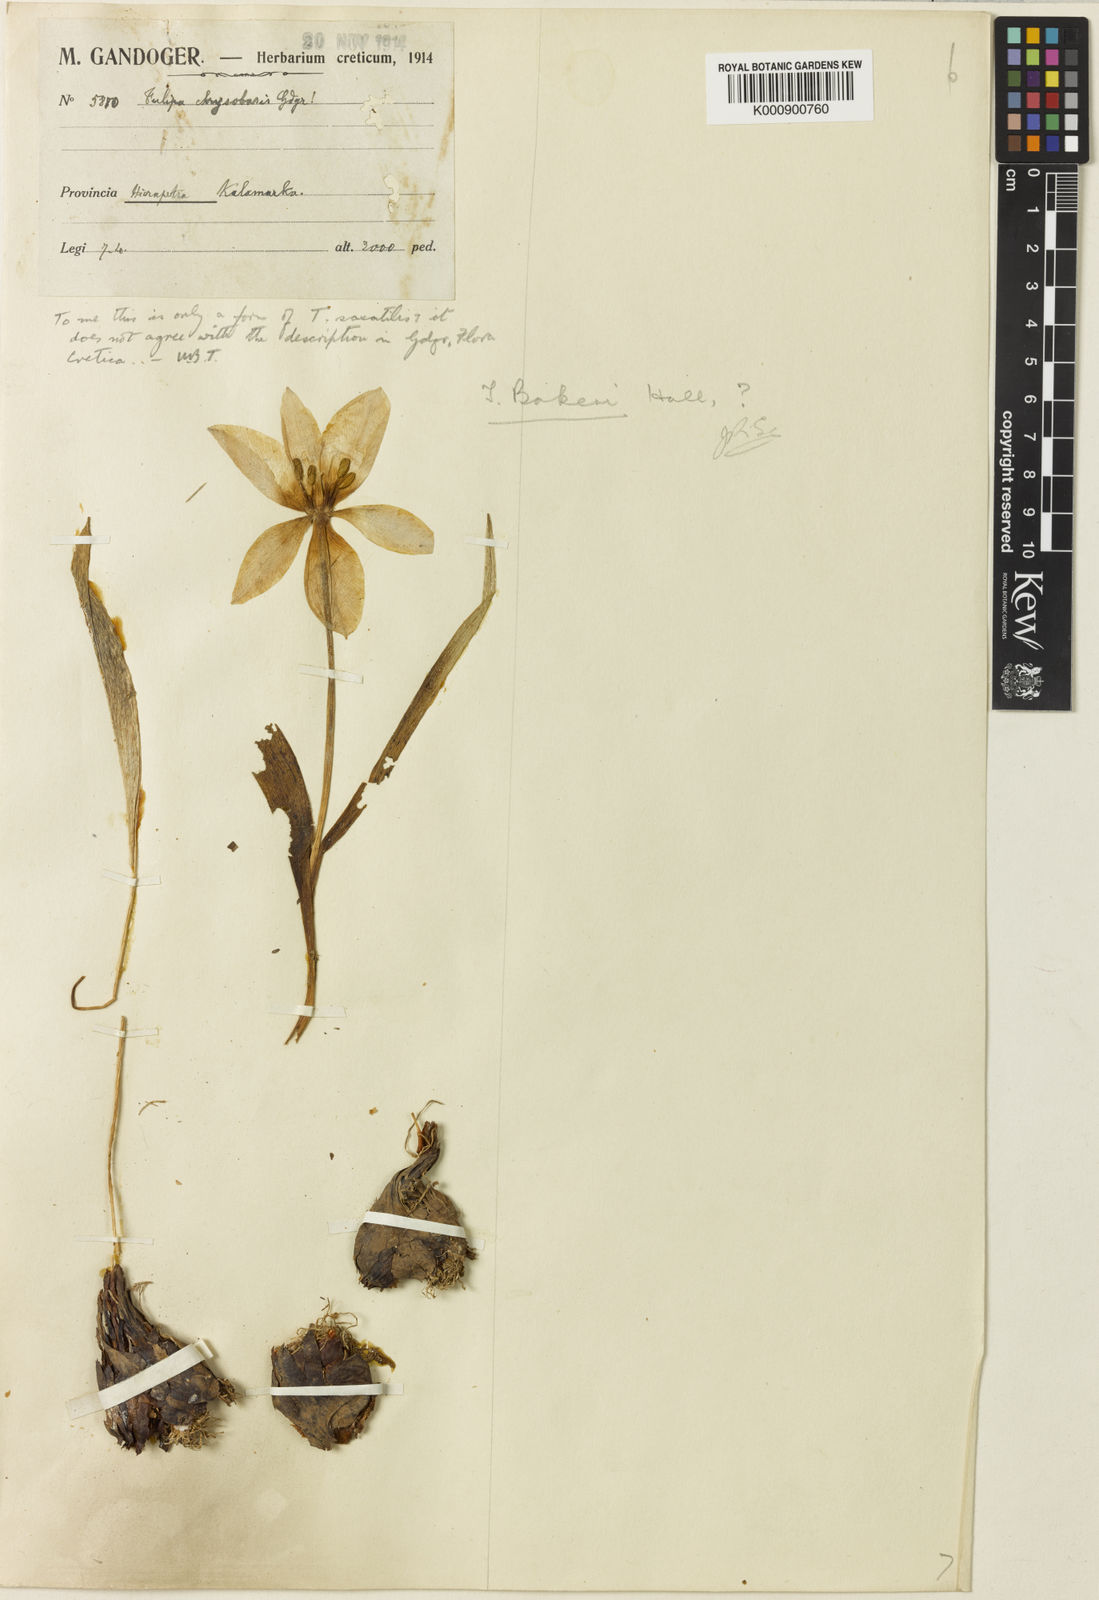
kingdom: Plantae
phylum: Tracheophyta
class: Liliopsida
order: Liliales
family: Liliaceae
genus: Tulipa
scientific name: Tulipa saxatilis
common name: Cretan tulip
